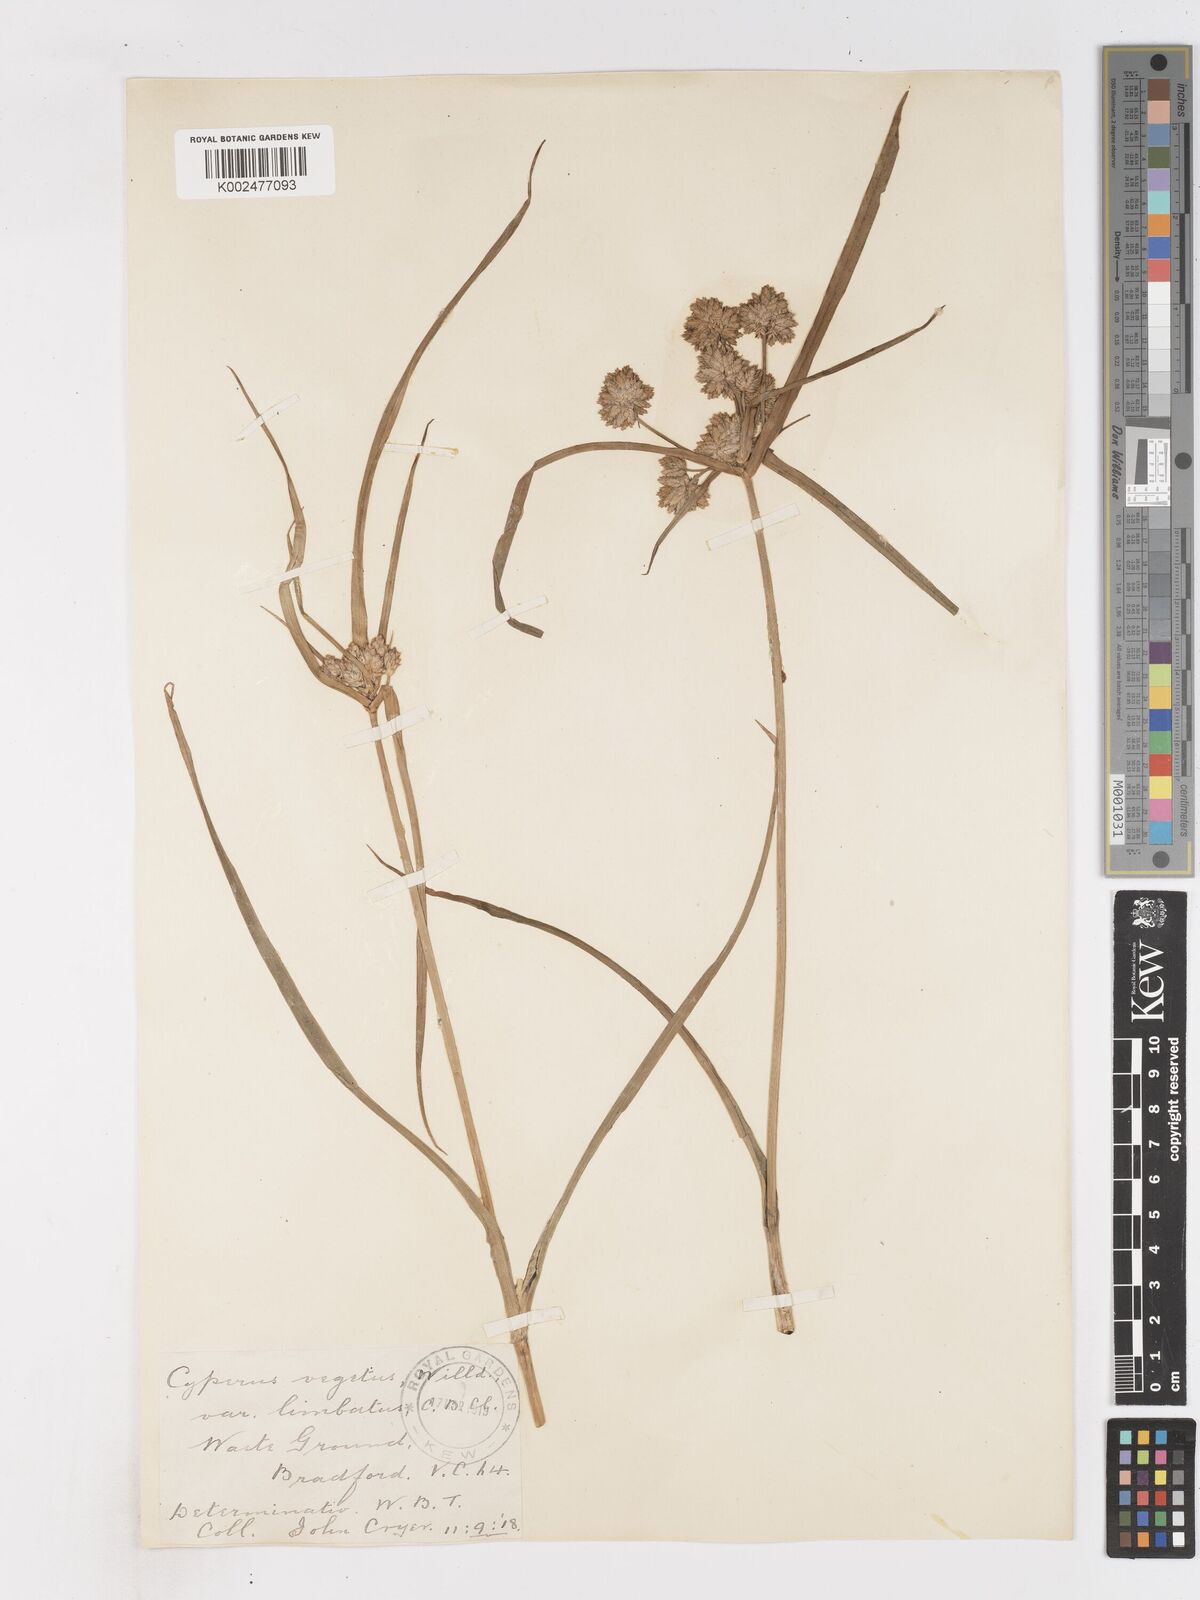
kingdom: Plantae
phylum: Tracheophyta
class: Liliopsida
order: Poales
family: Cyperaceae
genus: Cyperus
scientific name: Cyperus eragrostis
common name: Tall flatsedge
